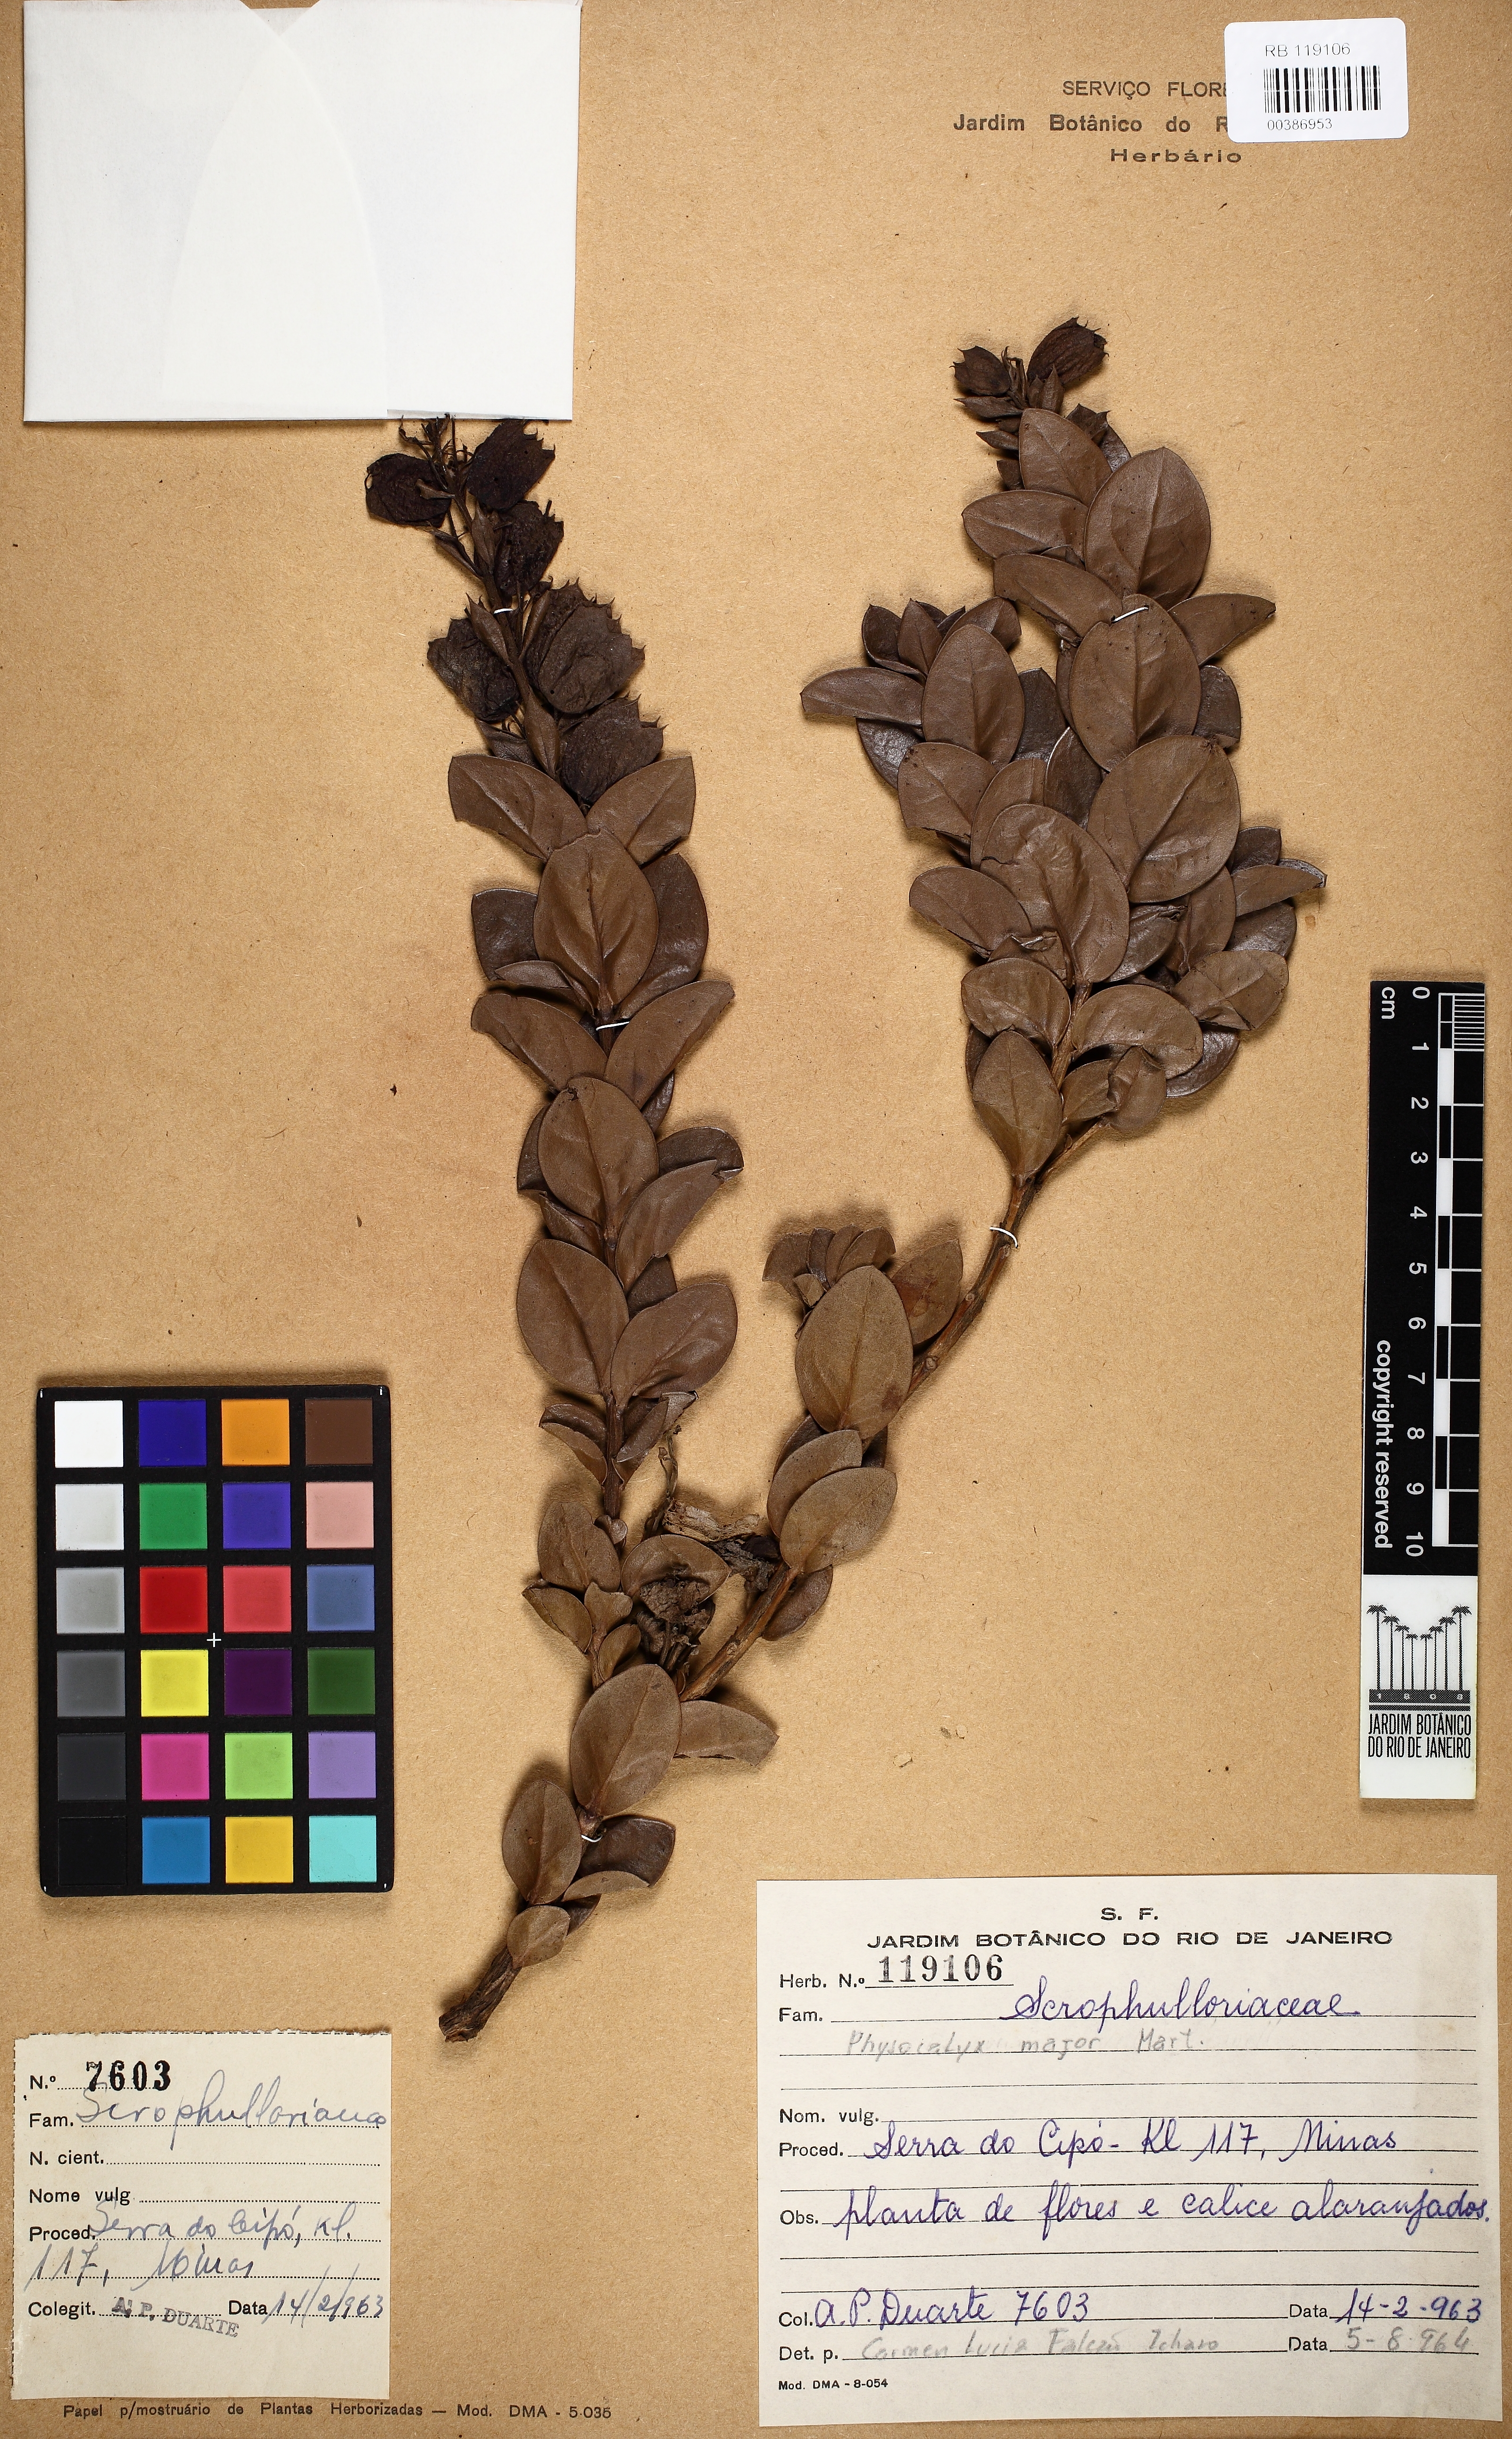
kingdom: Plantae
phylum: Tracheophyta
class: Magnoliopsida
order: Lamiales
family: Orobanchaceae
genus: Physocalyx
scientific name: Physocalyx major
